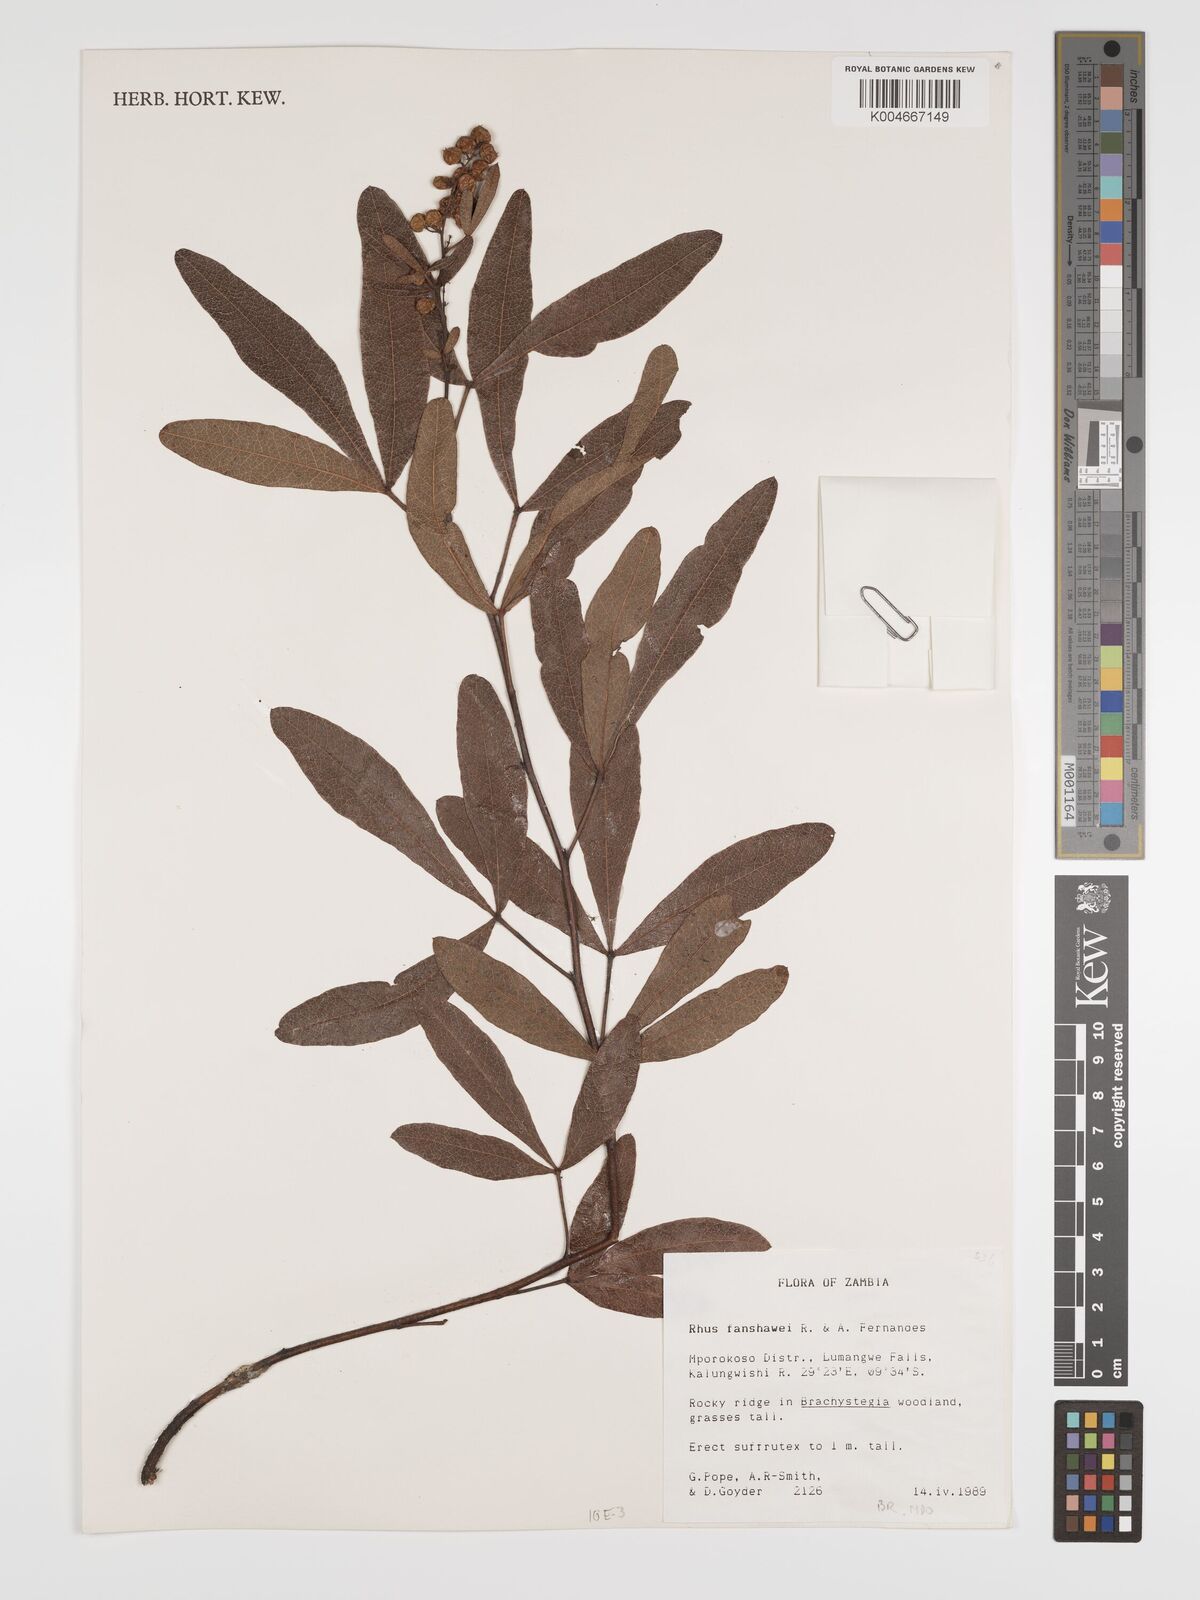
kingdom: Plantae
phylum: Tracheophyta
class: Magnoliopsida
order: Sapindales
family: Anacardiaceae
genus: Searsia
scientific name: Searsia magalismontana
